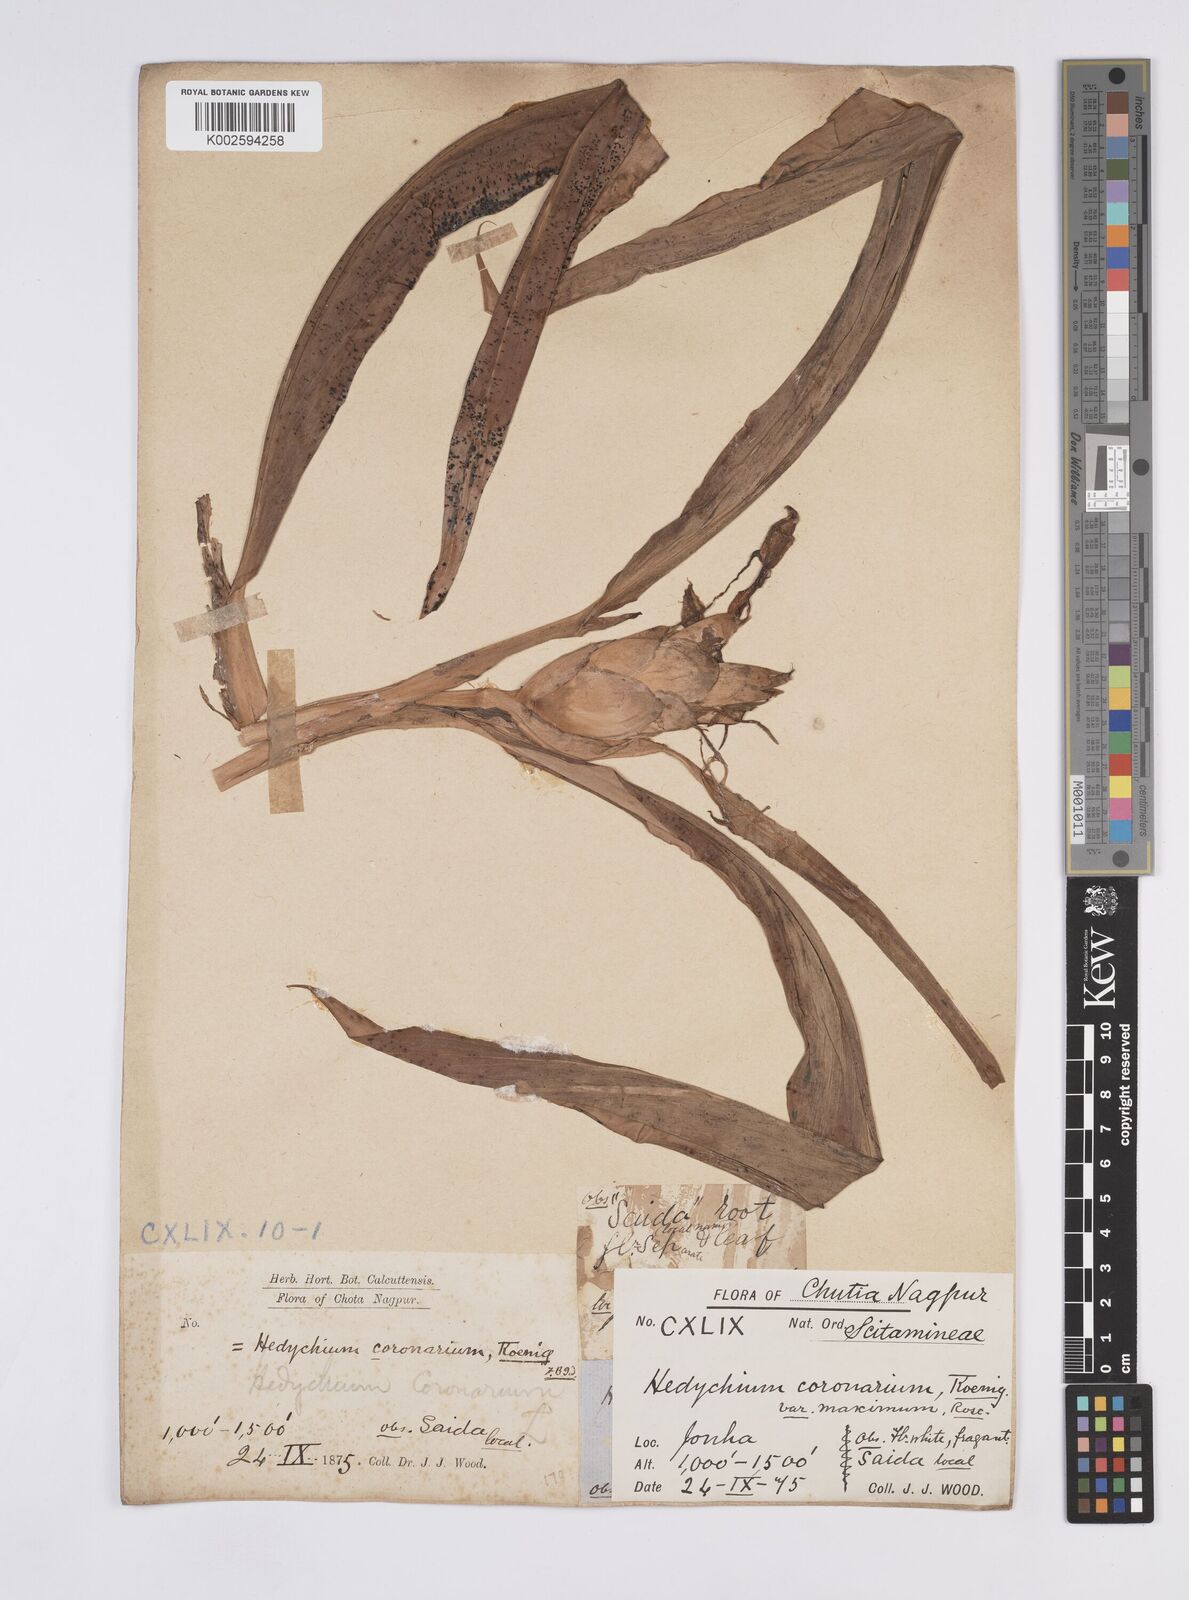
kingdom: Plantae
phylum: Tracheophyta
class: Liliopsida
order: Zingiberales
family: Zingiberaceae
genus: Hedychium
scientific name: Hedychium coronarium
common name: White garland-lily
